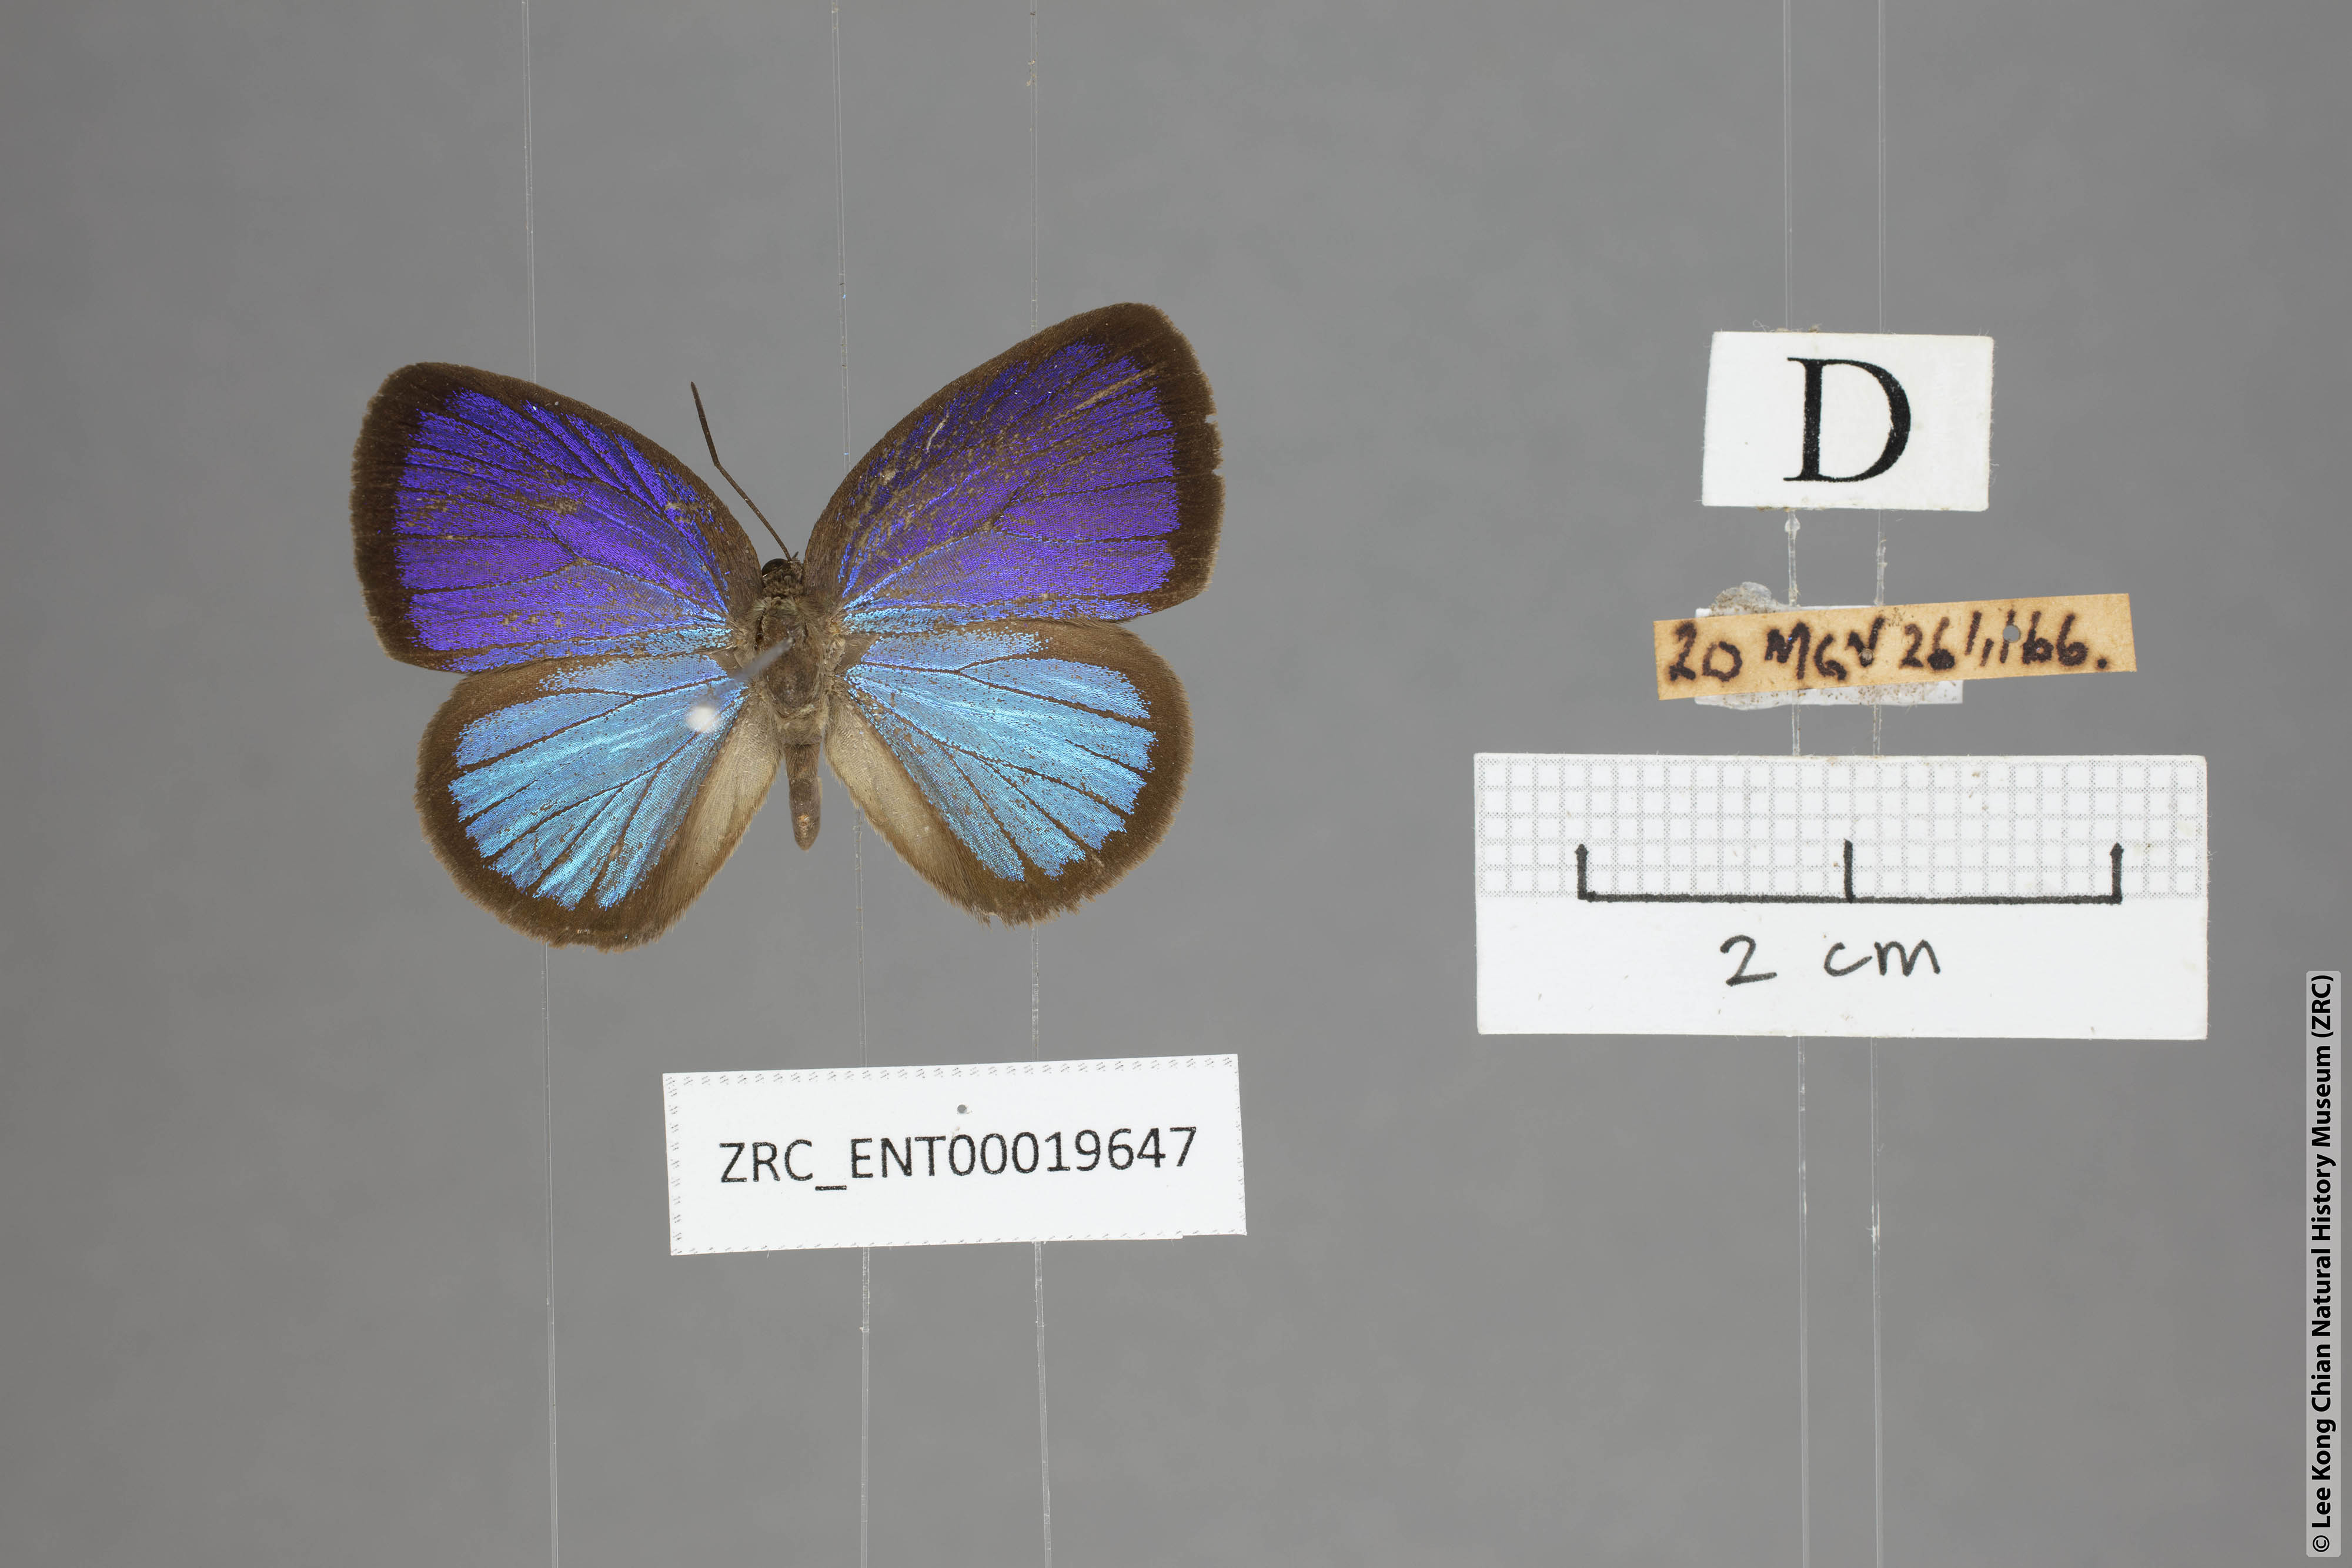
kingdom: Animalia
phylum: Arthropoda
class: Insecta
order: Lepidoptera
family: Lycaenidae
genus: Arhopala
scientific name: Arhopala metamuta
